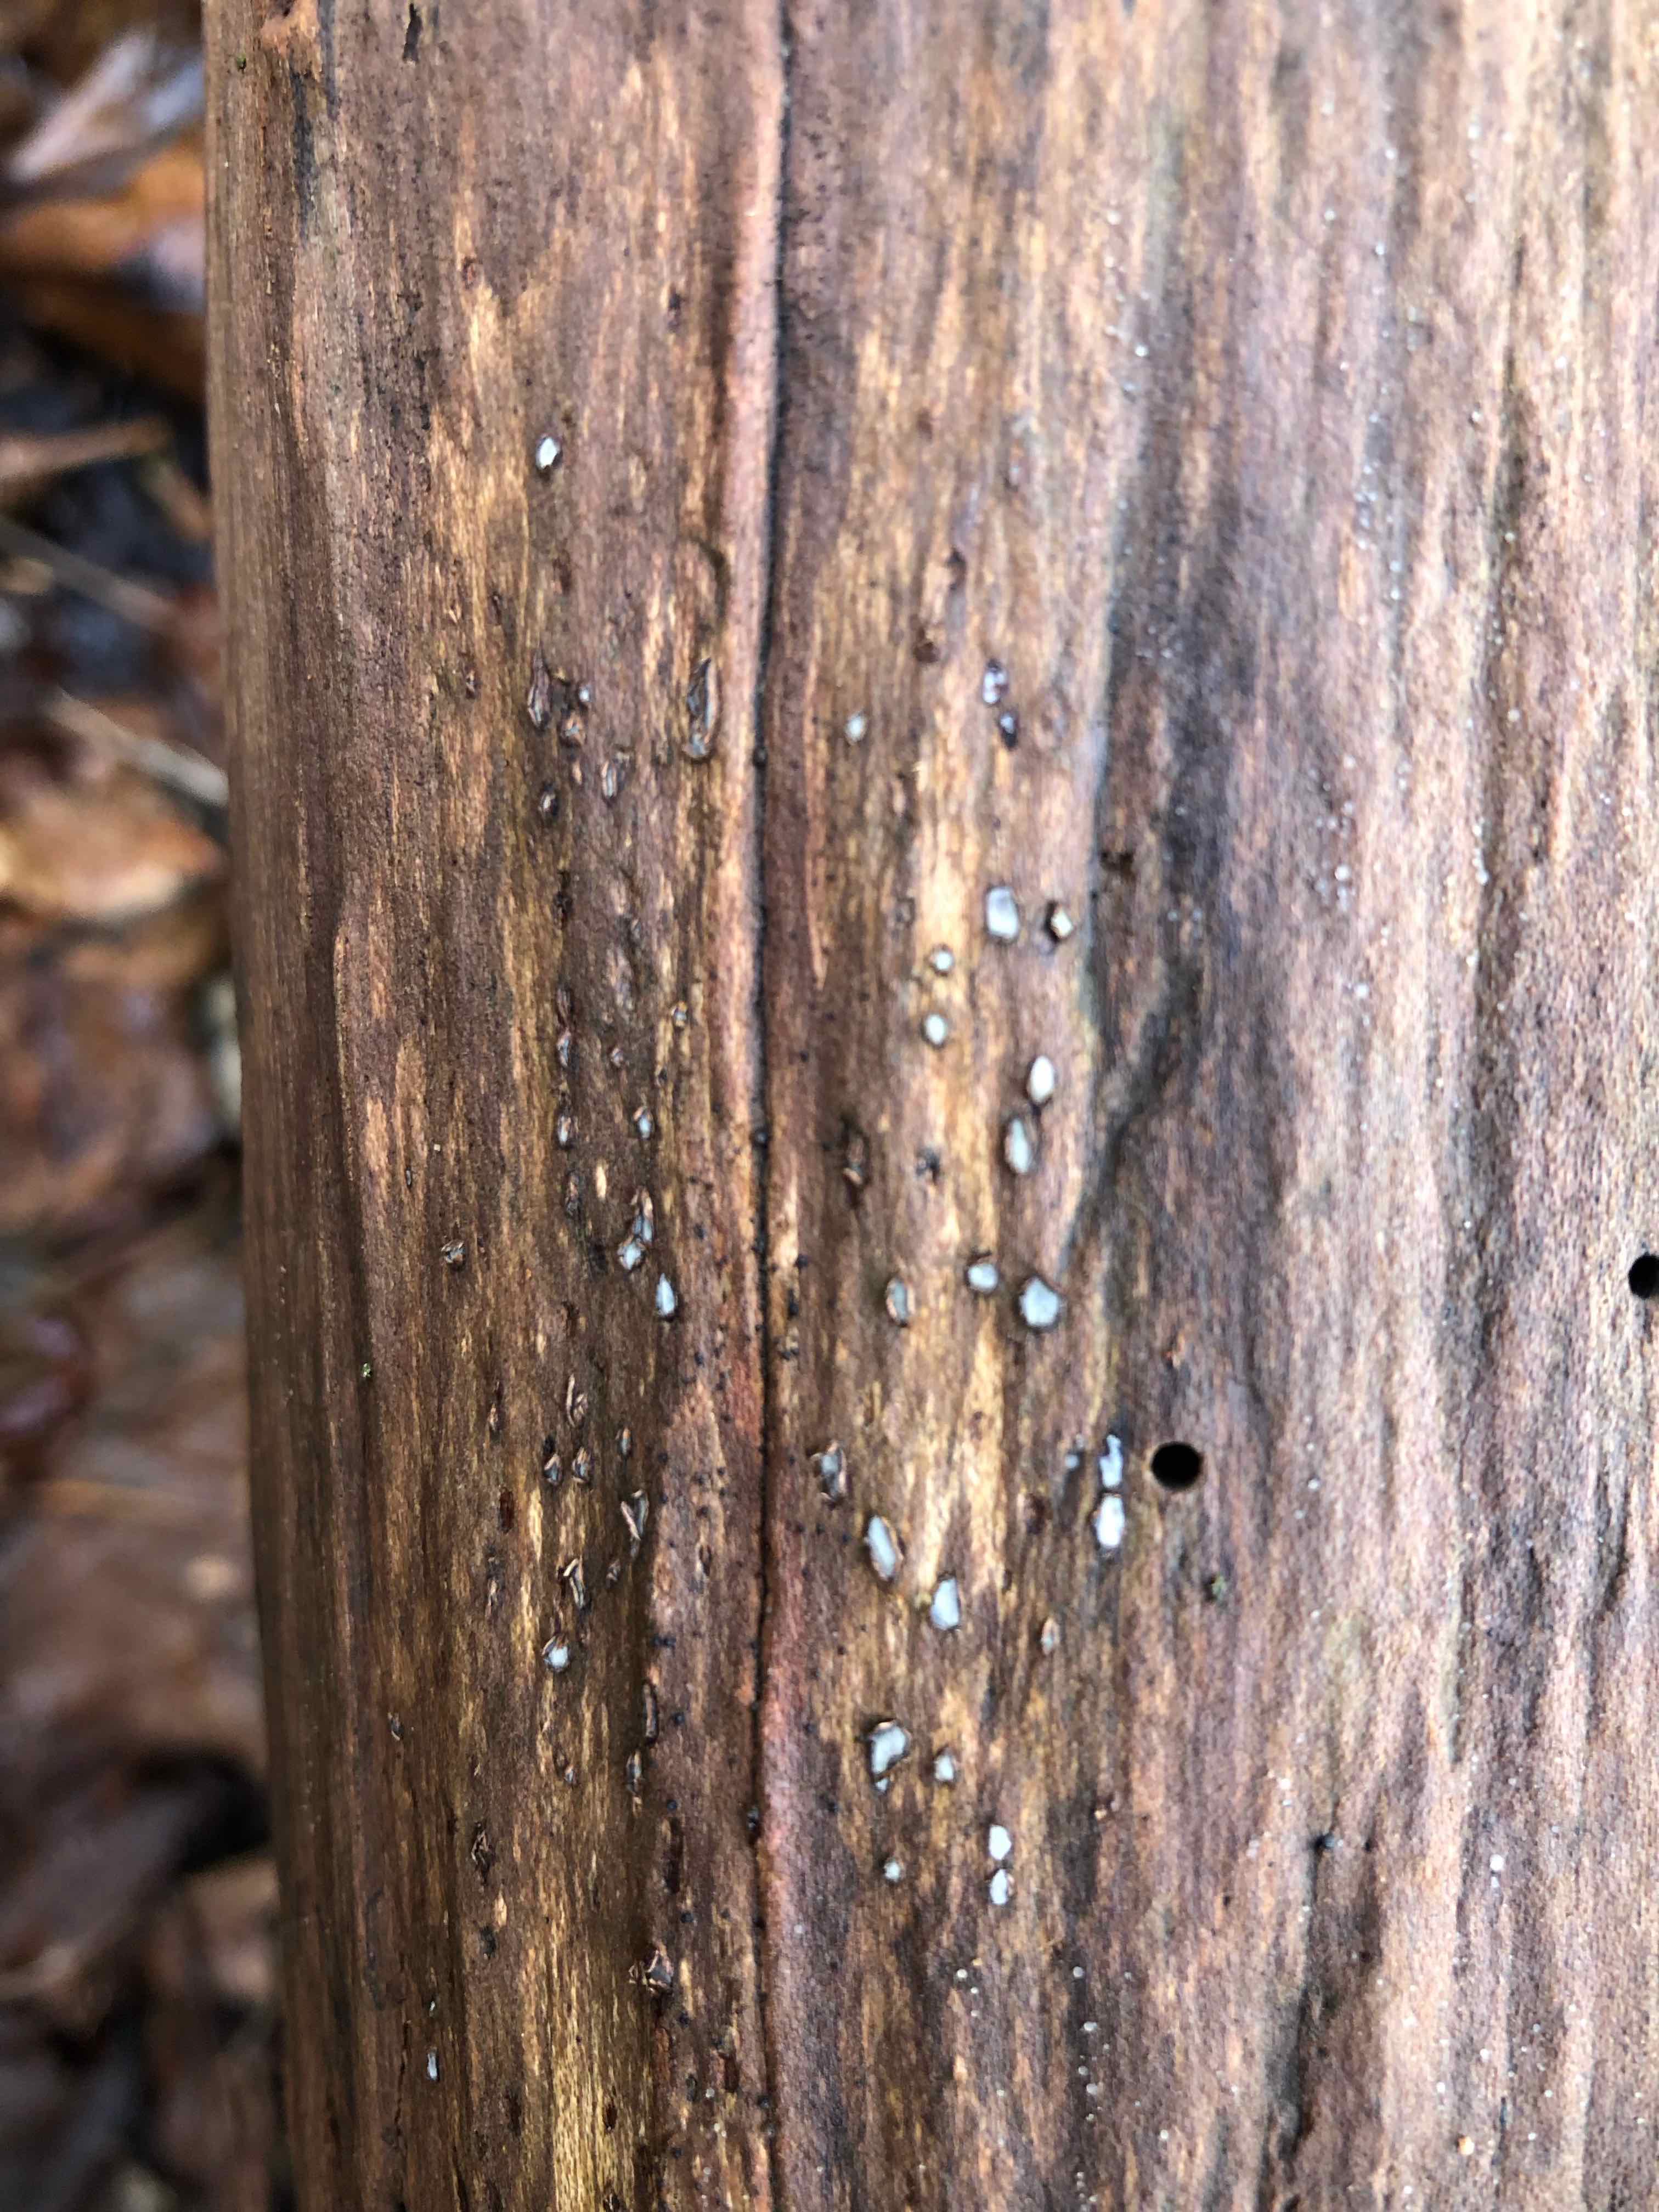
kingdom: Fungi
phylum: Ascomycota
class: Leotiomycetes
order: Chaetomellales
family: Marthamycetaceae
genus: Propolis
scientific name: Propolis farinosa
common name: almindelig vedsprængerskive
